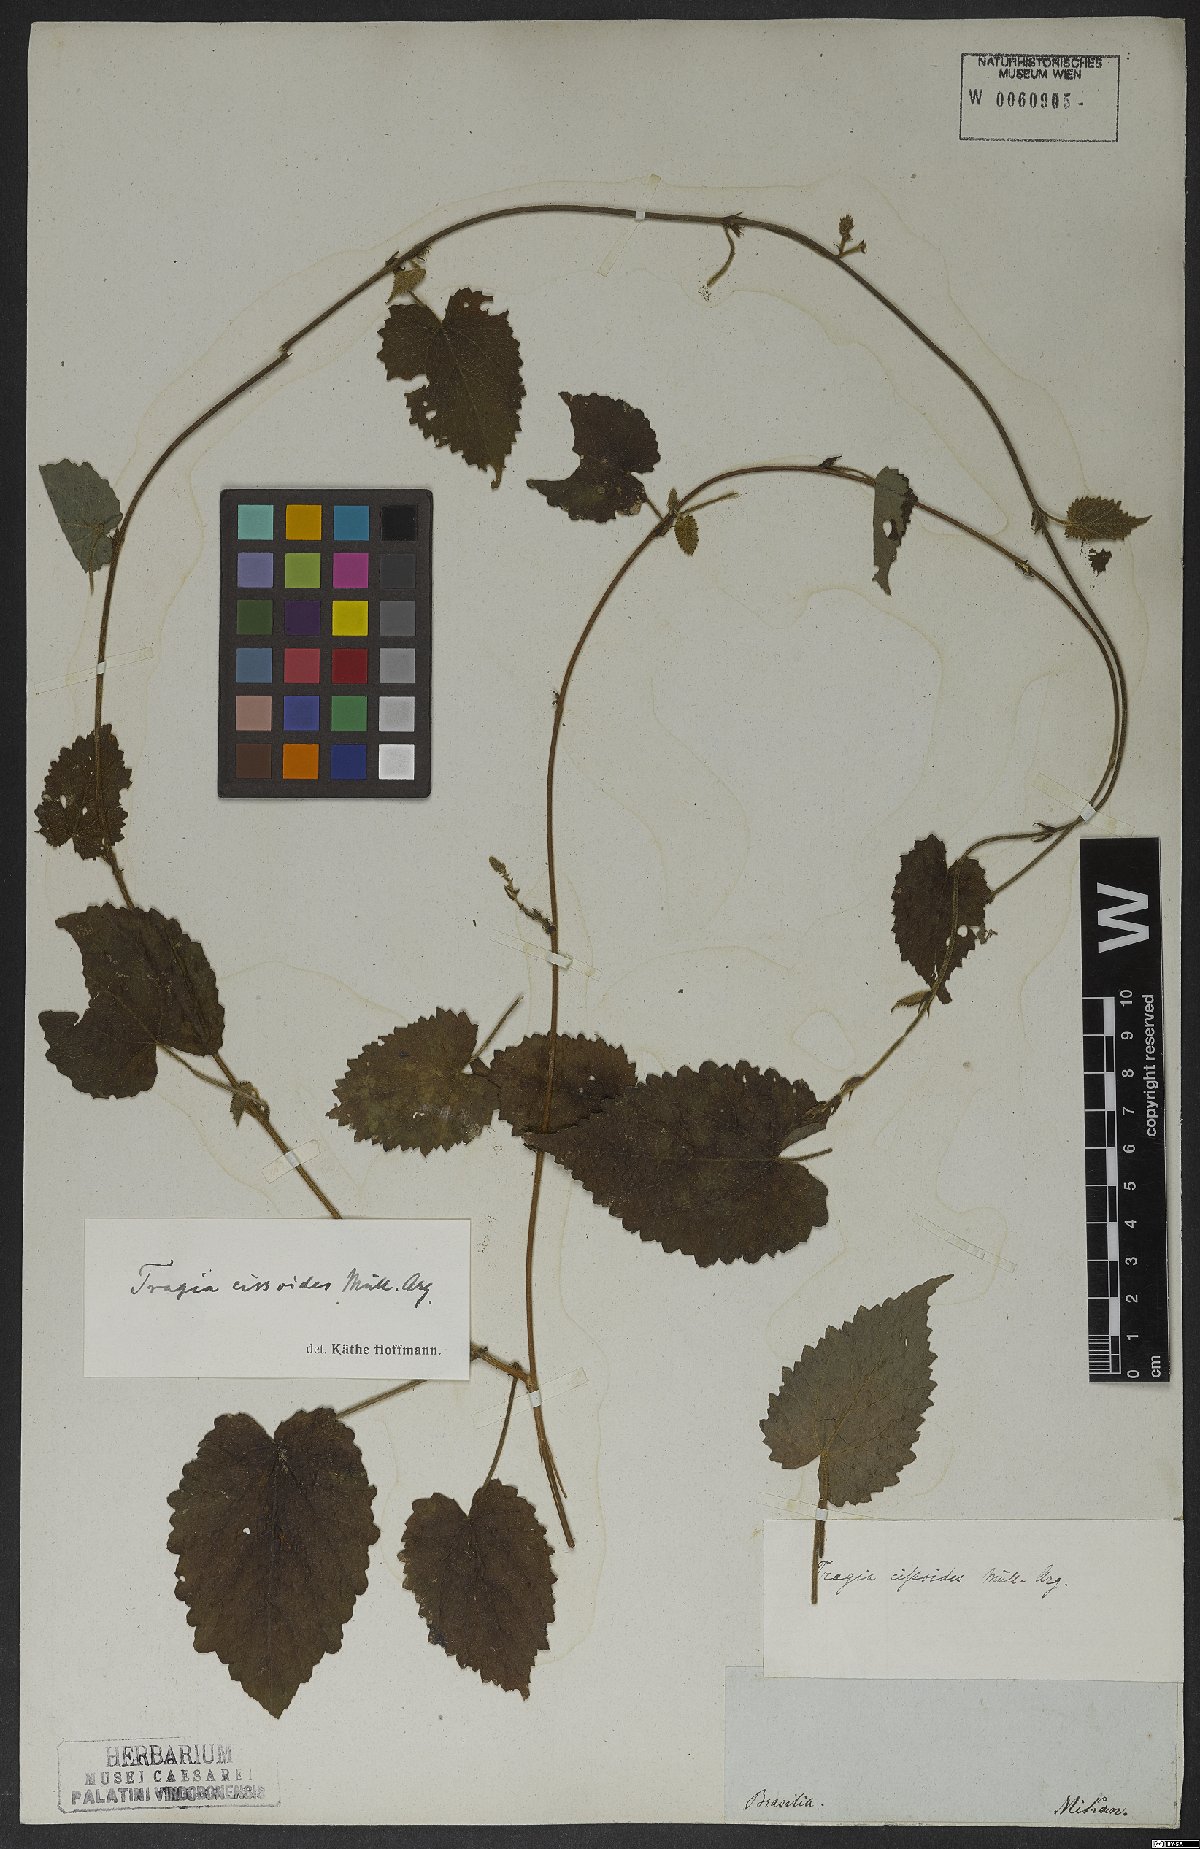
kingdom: Plantae
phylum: Tracheophyta
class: Magnoliopsida
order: Malpighiales
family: Euphorbiaceae
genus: Bia
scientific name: Bia alienata
